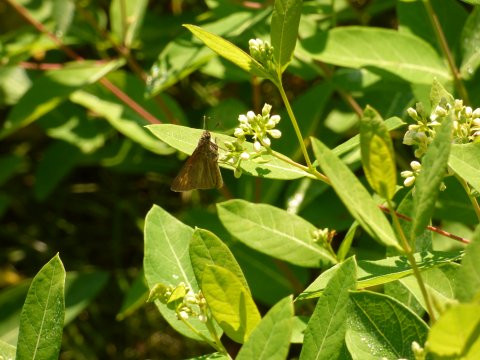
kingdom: Animalia
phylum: Arthropoda
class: Insecta
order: Lepidoptera
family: Hesperiidae
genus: Euphyes
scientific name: Euphyes dion
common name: Dion Skipper
